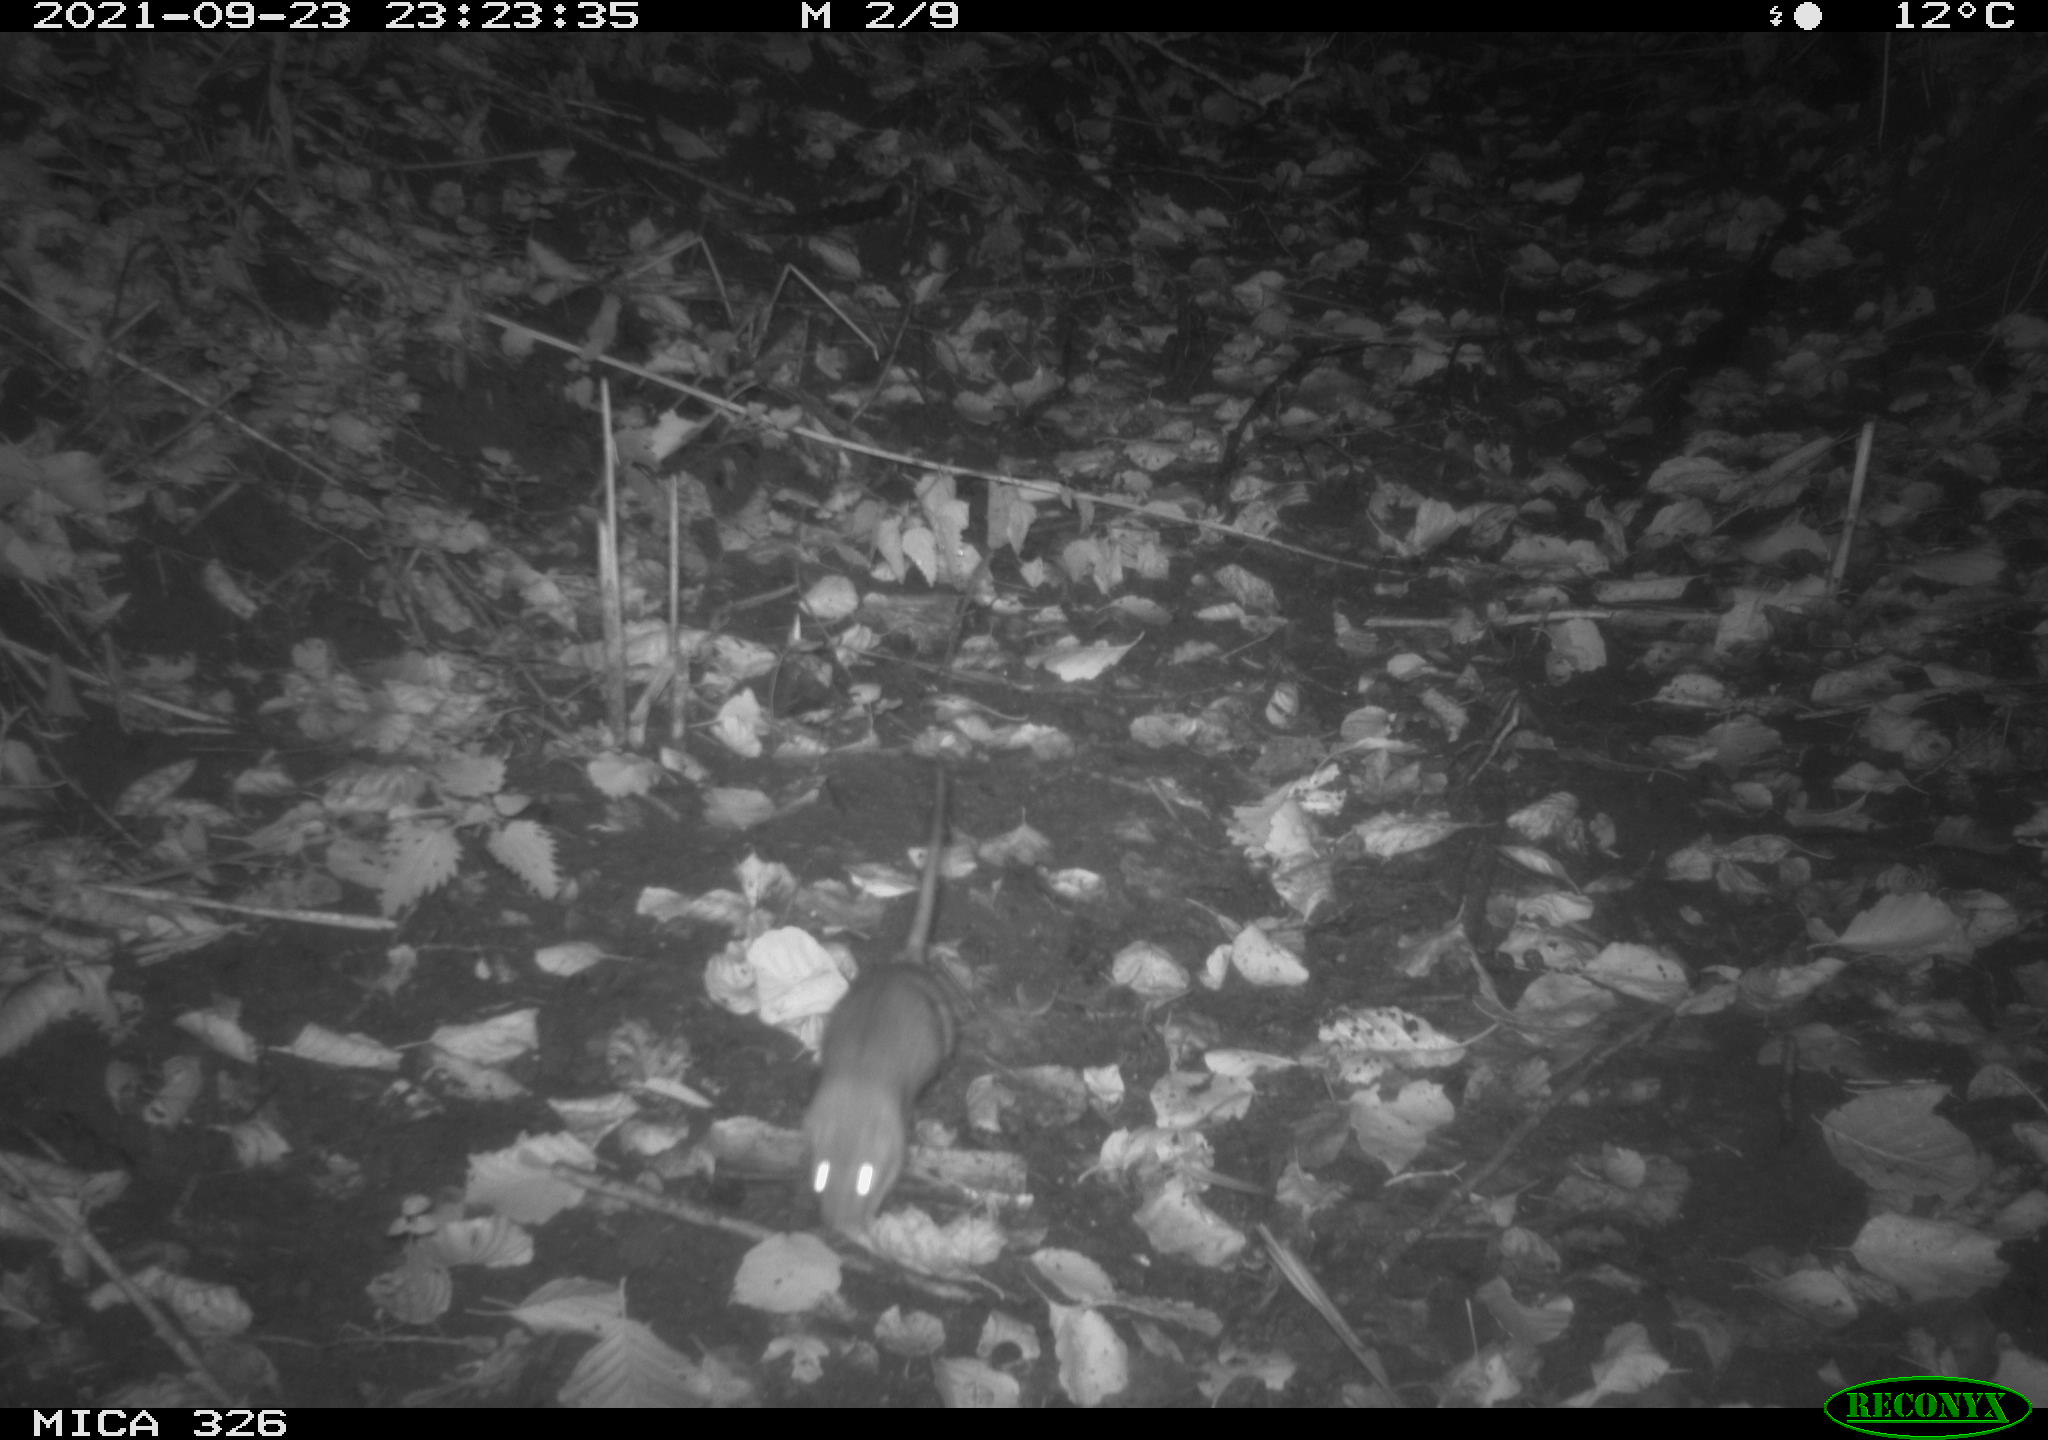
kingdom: Animalia
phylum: Chordata
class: Mammalia
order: Rodentia
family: Muridae
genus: Rattus
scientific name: Rattus norvegicus
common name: Brown rat
